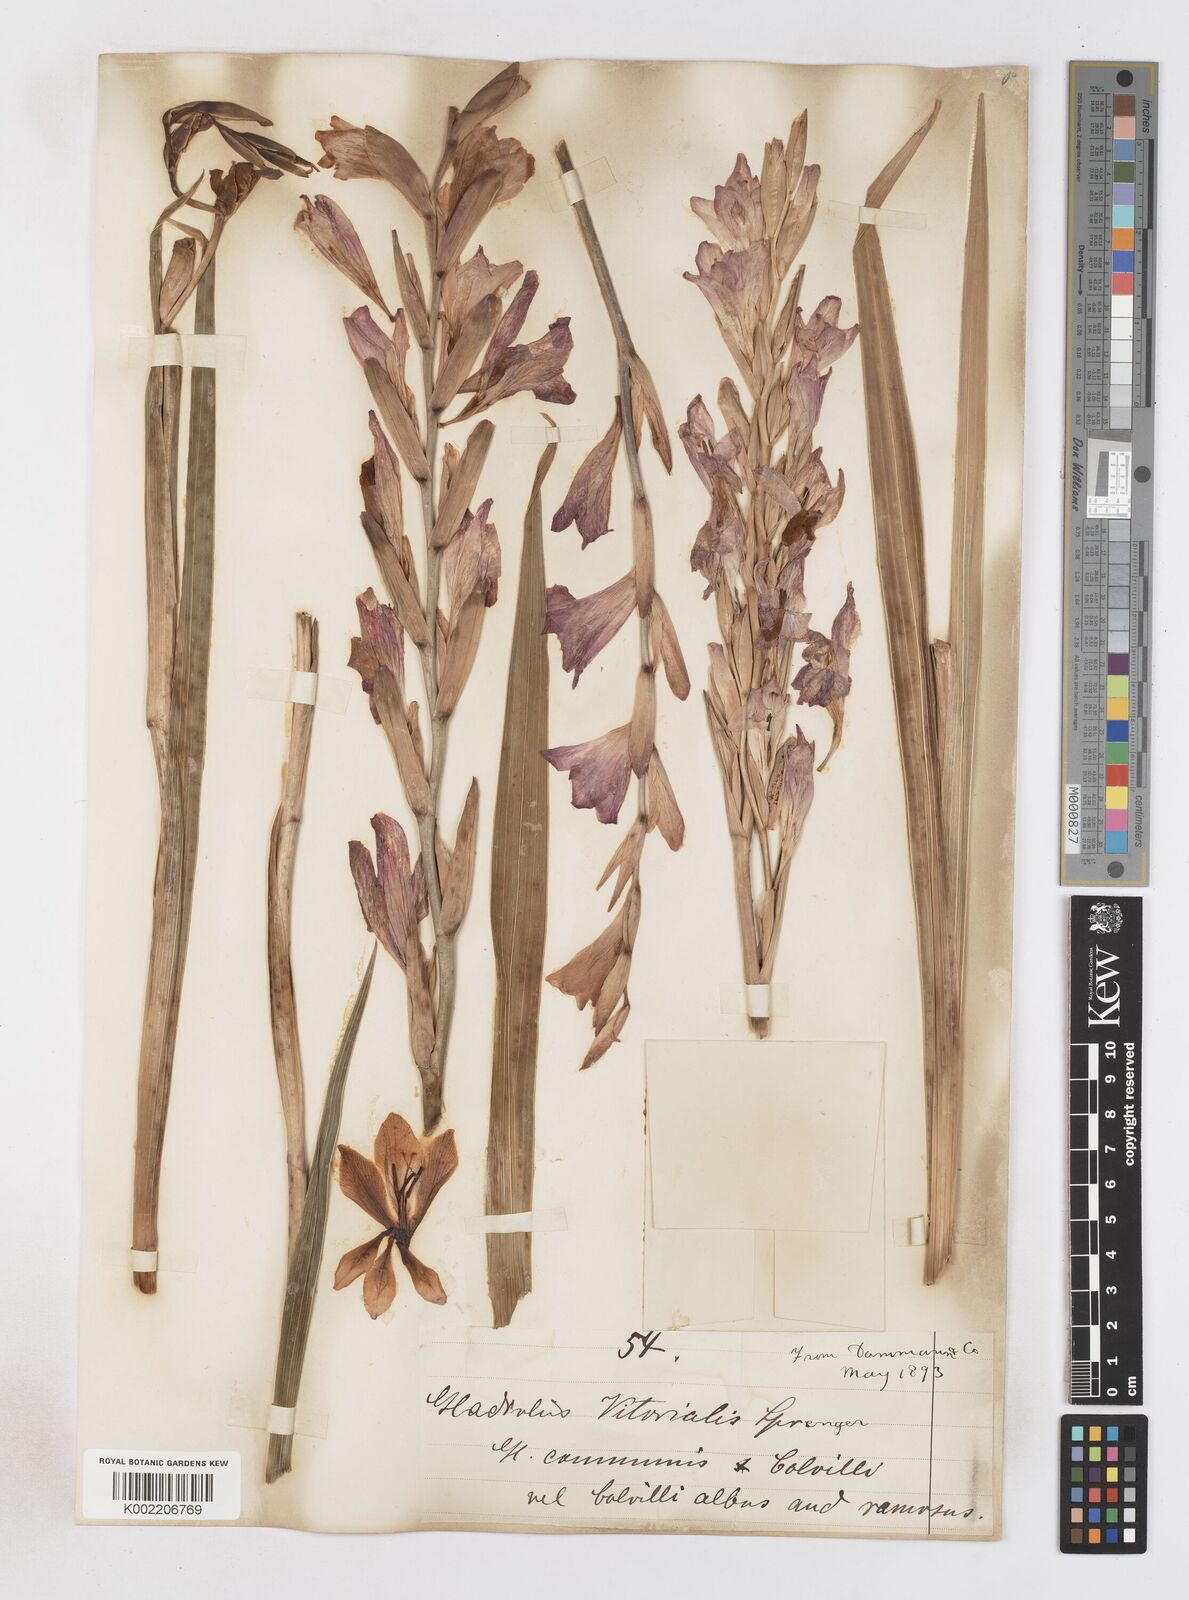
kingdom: Plantae
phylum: Tracheophyta
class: Liliopsida
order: Asparagales
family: Iridaceae
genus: Gladiolus
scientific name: Gladiolus communis
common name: Eastern gladiolus
